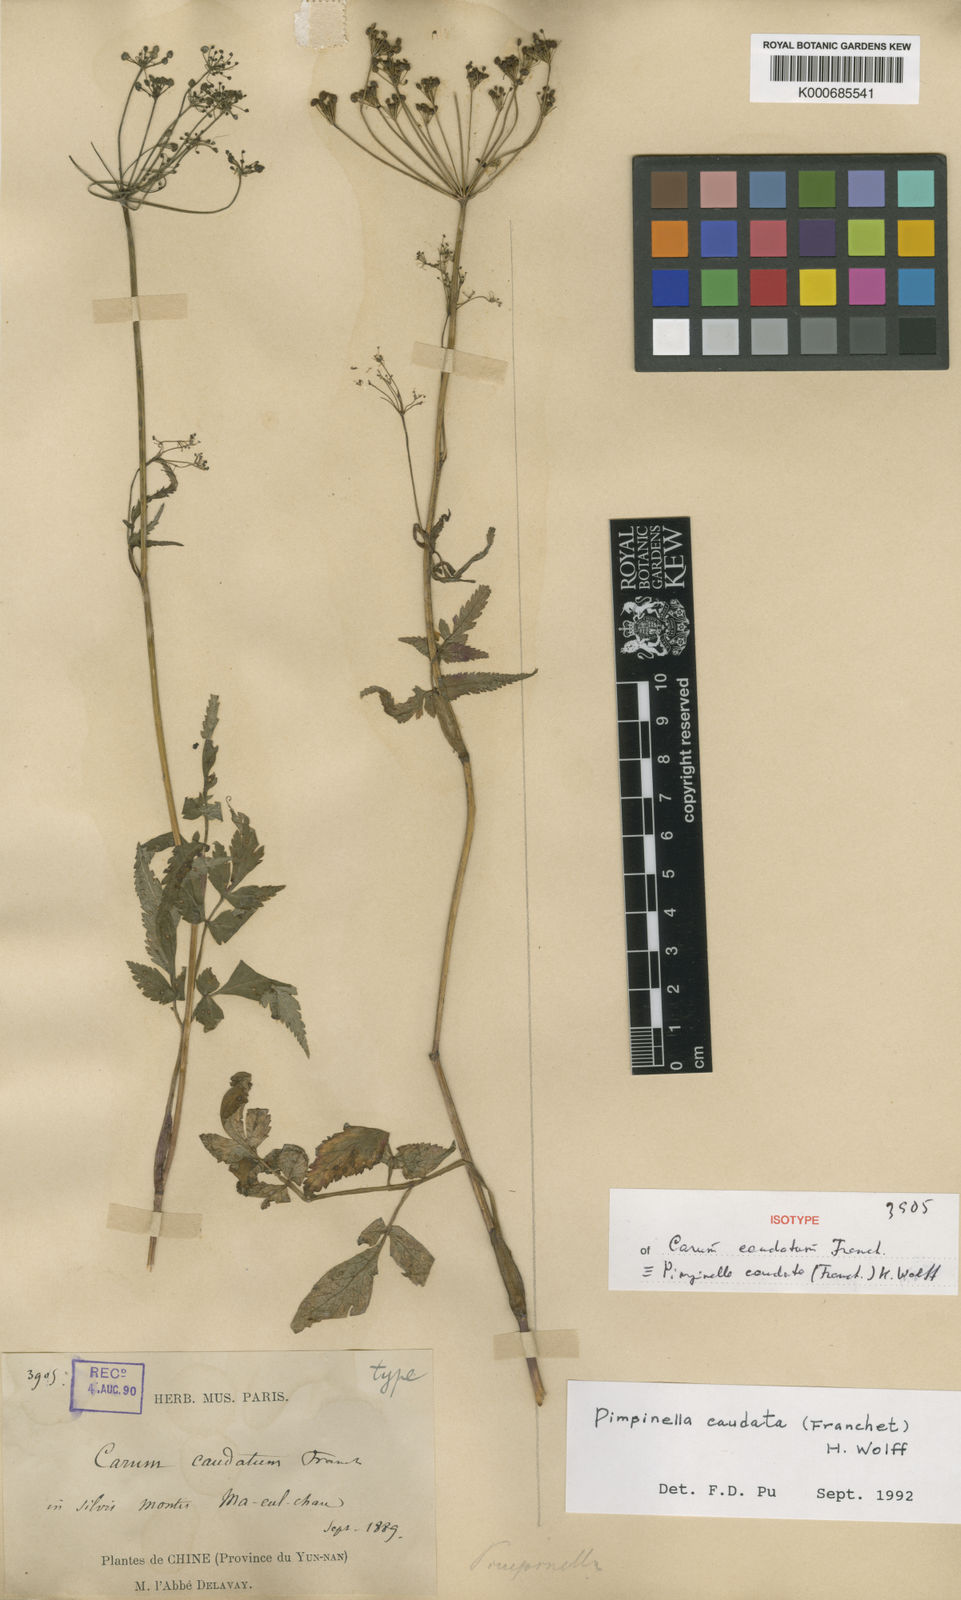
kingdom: Plantae
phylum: Tracheophyta
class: Magnoliopsida
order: Apiales
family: Apiaceae
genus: Pimpinella
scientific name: Pimpinella caudata
